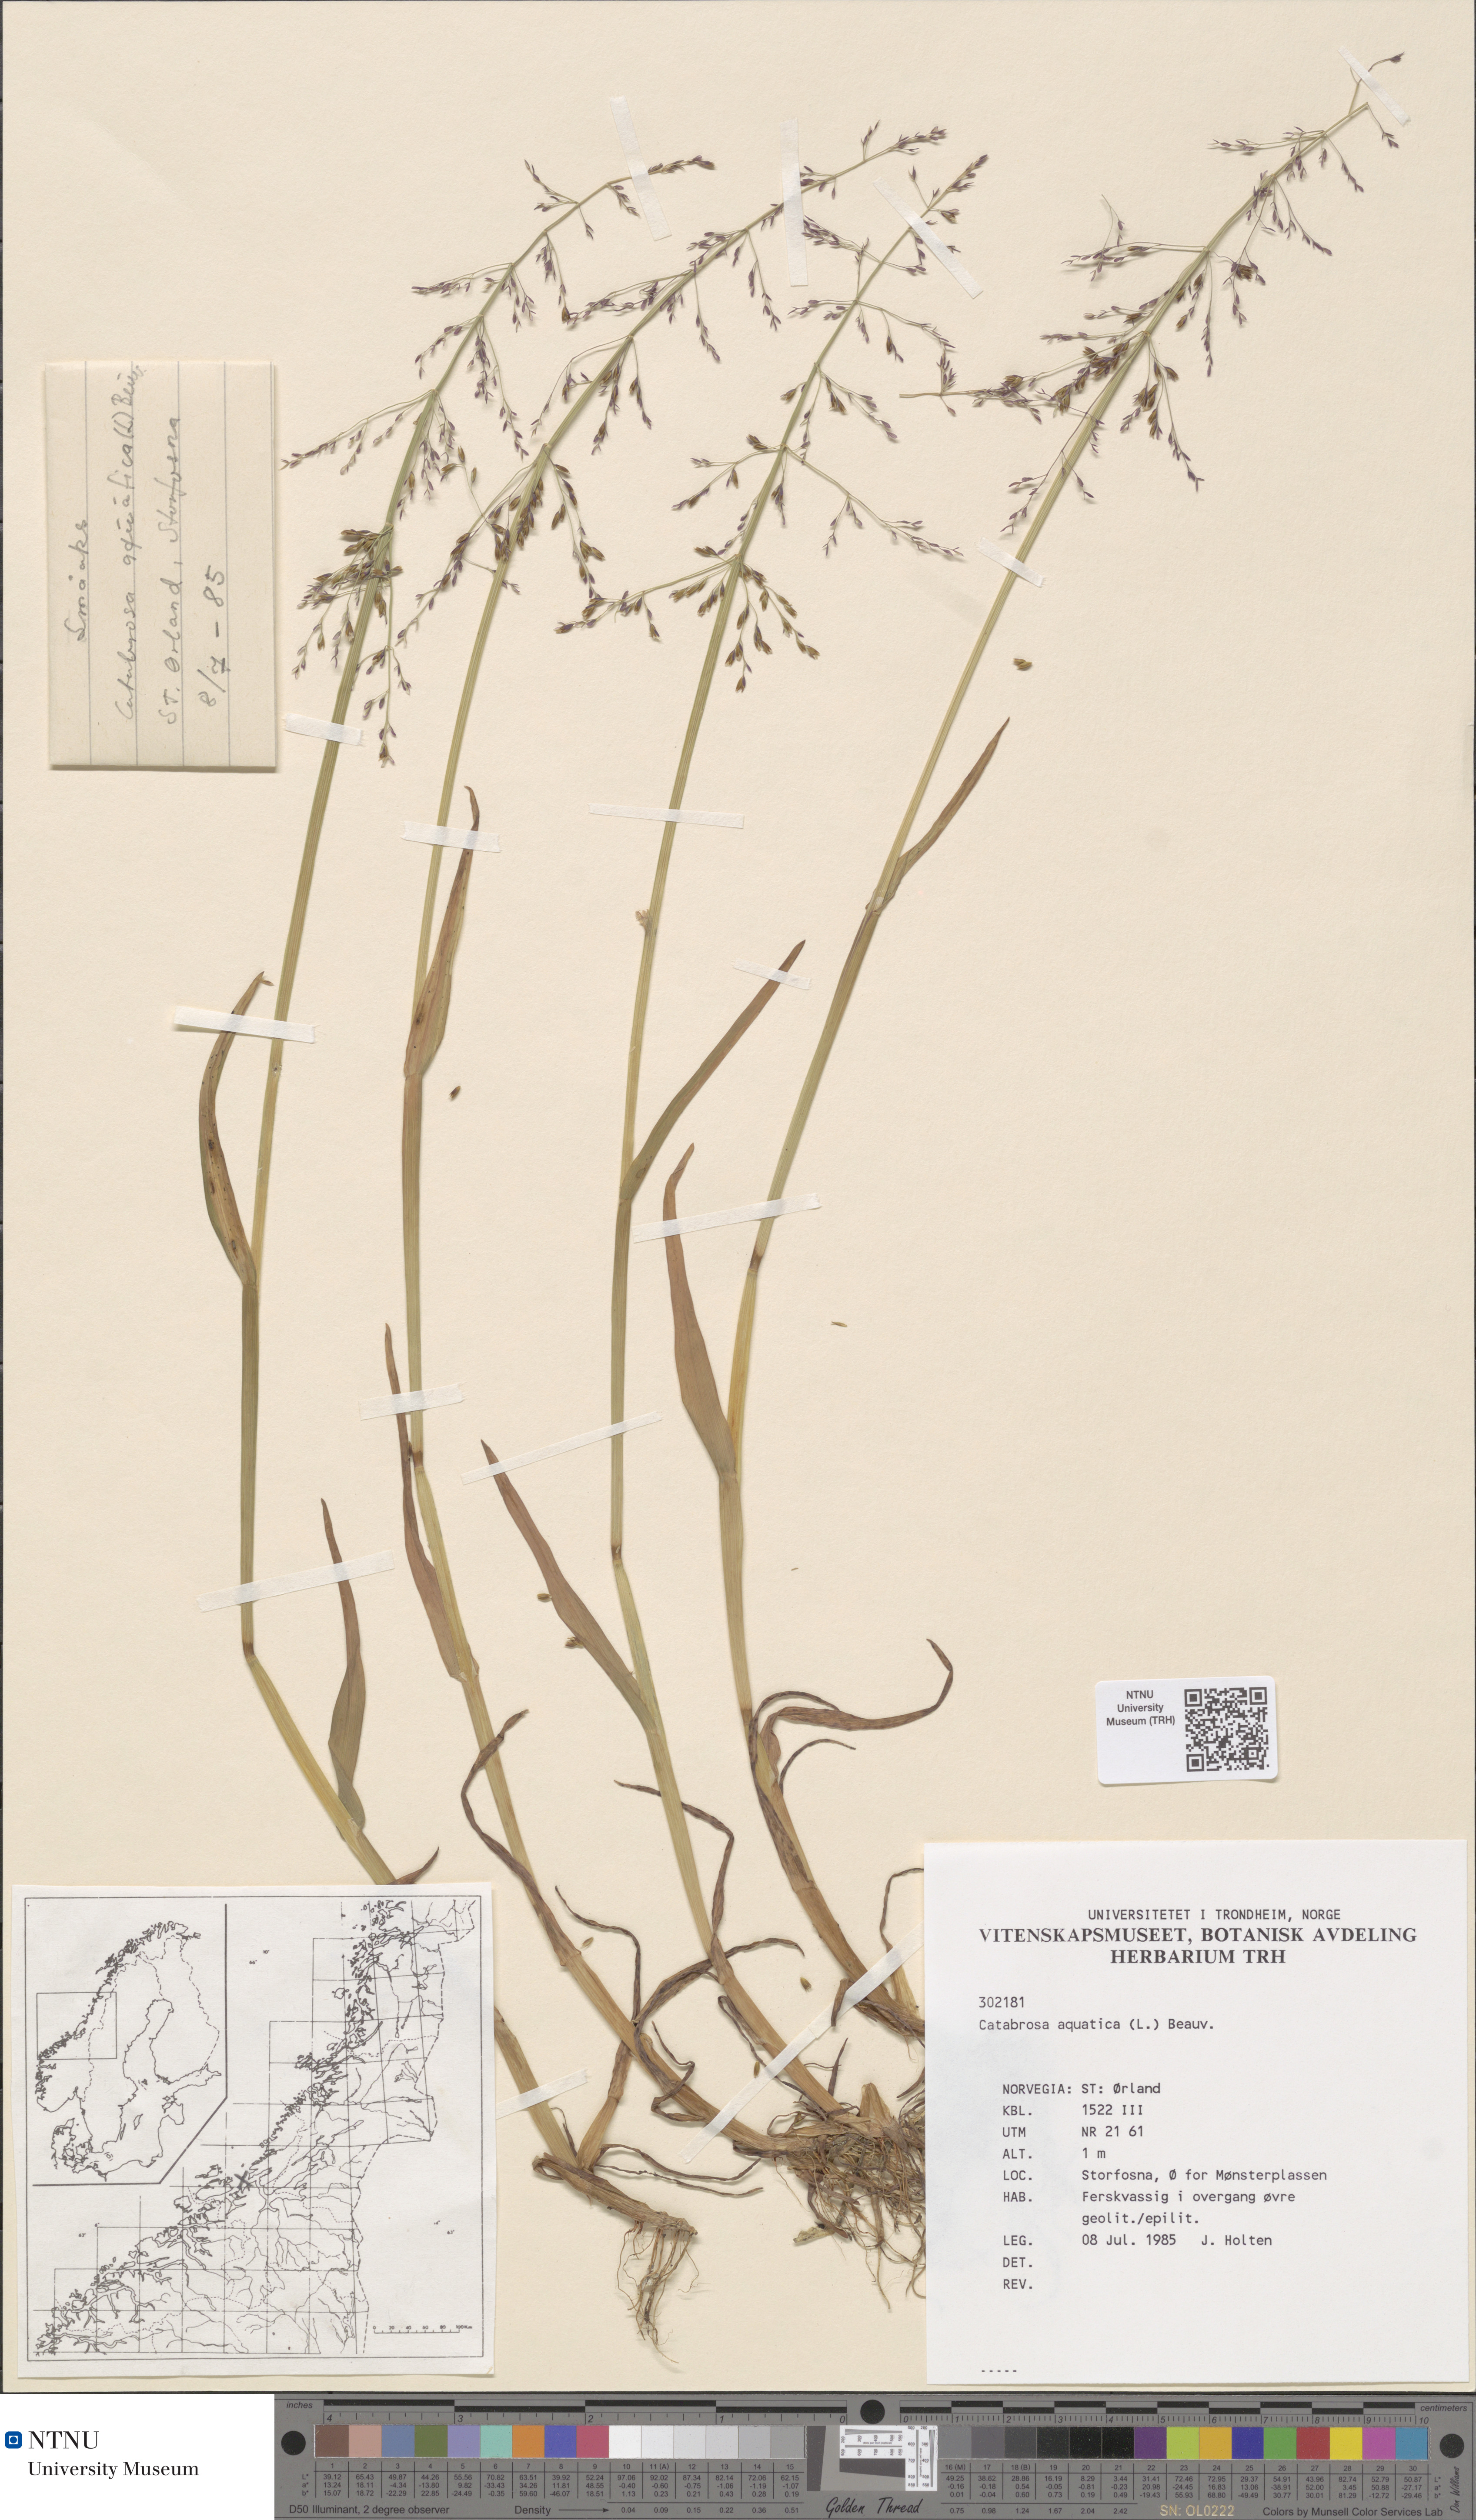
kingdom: Plantae
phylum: Tracheophyta
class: Liliopsida
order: Poales
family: Poaceae
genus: Catabrosa
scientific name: Catabrosa aquatica
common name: Whorl-grass
